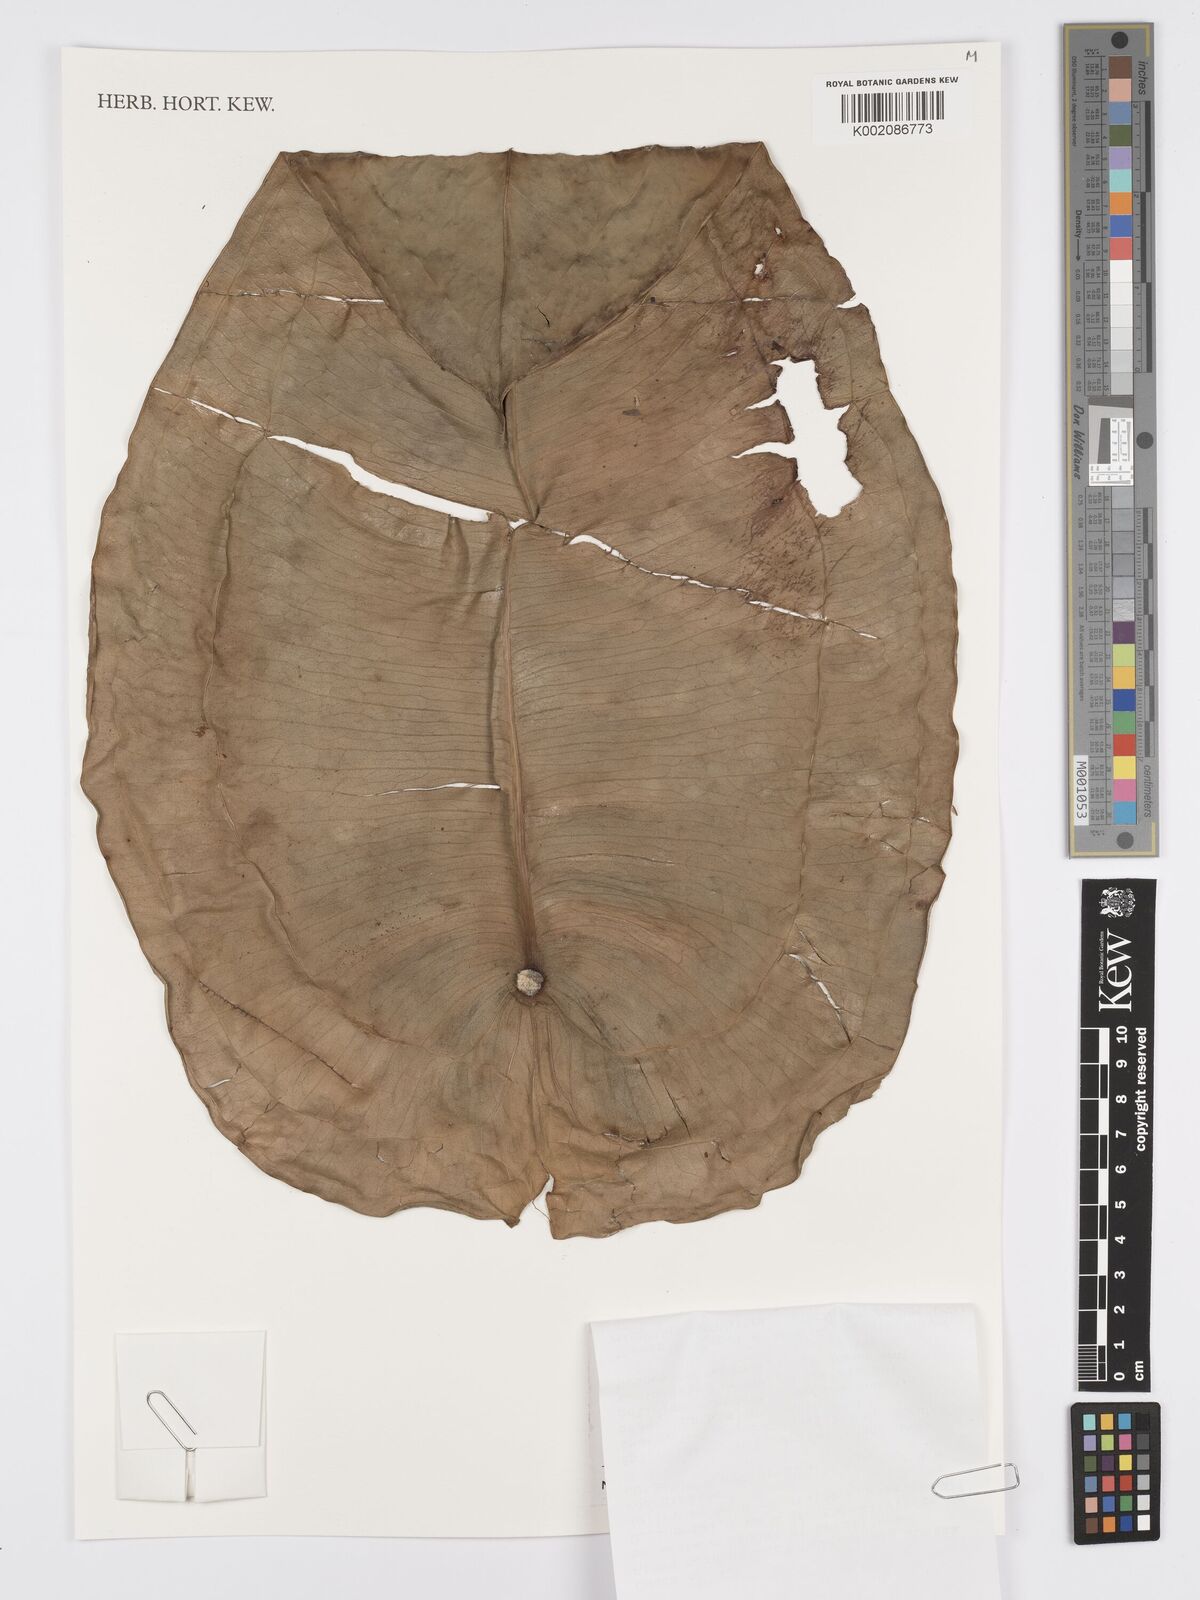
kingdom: Plantae
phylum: Tracheophyta
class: Liliopsida
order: Alismatales
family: Araceae
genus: Anthurium
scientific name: Anthurium peltigerum
